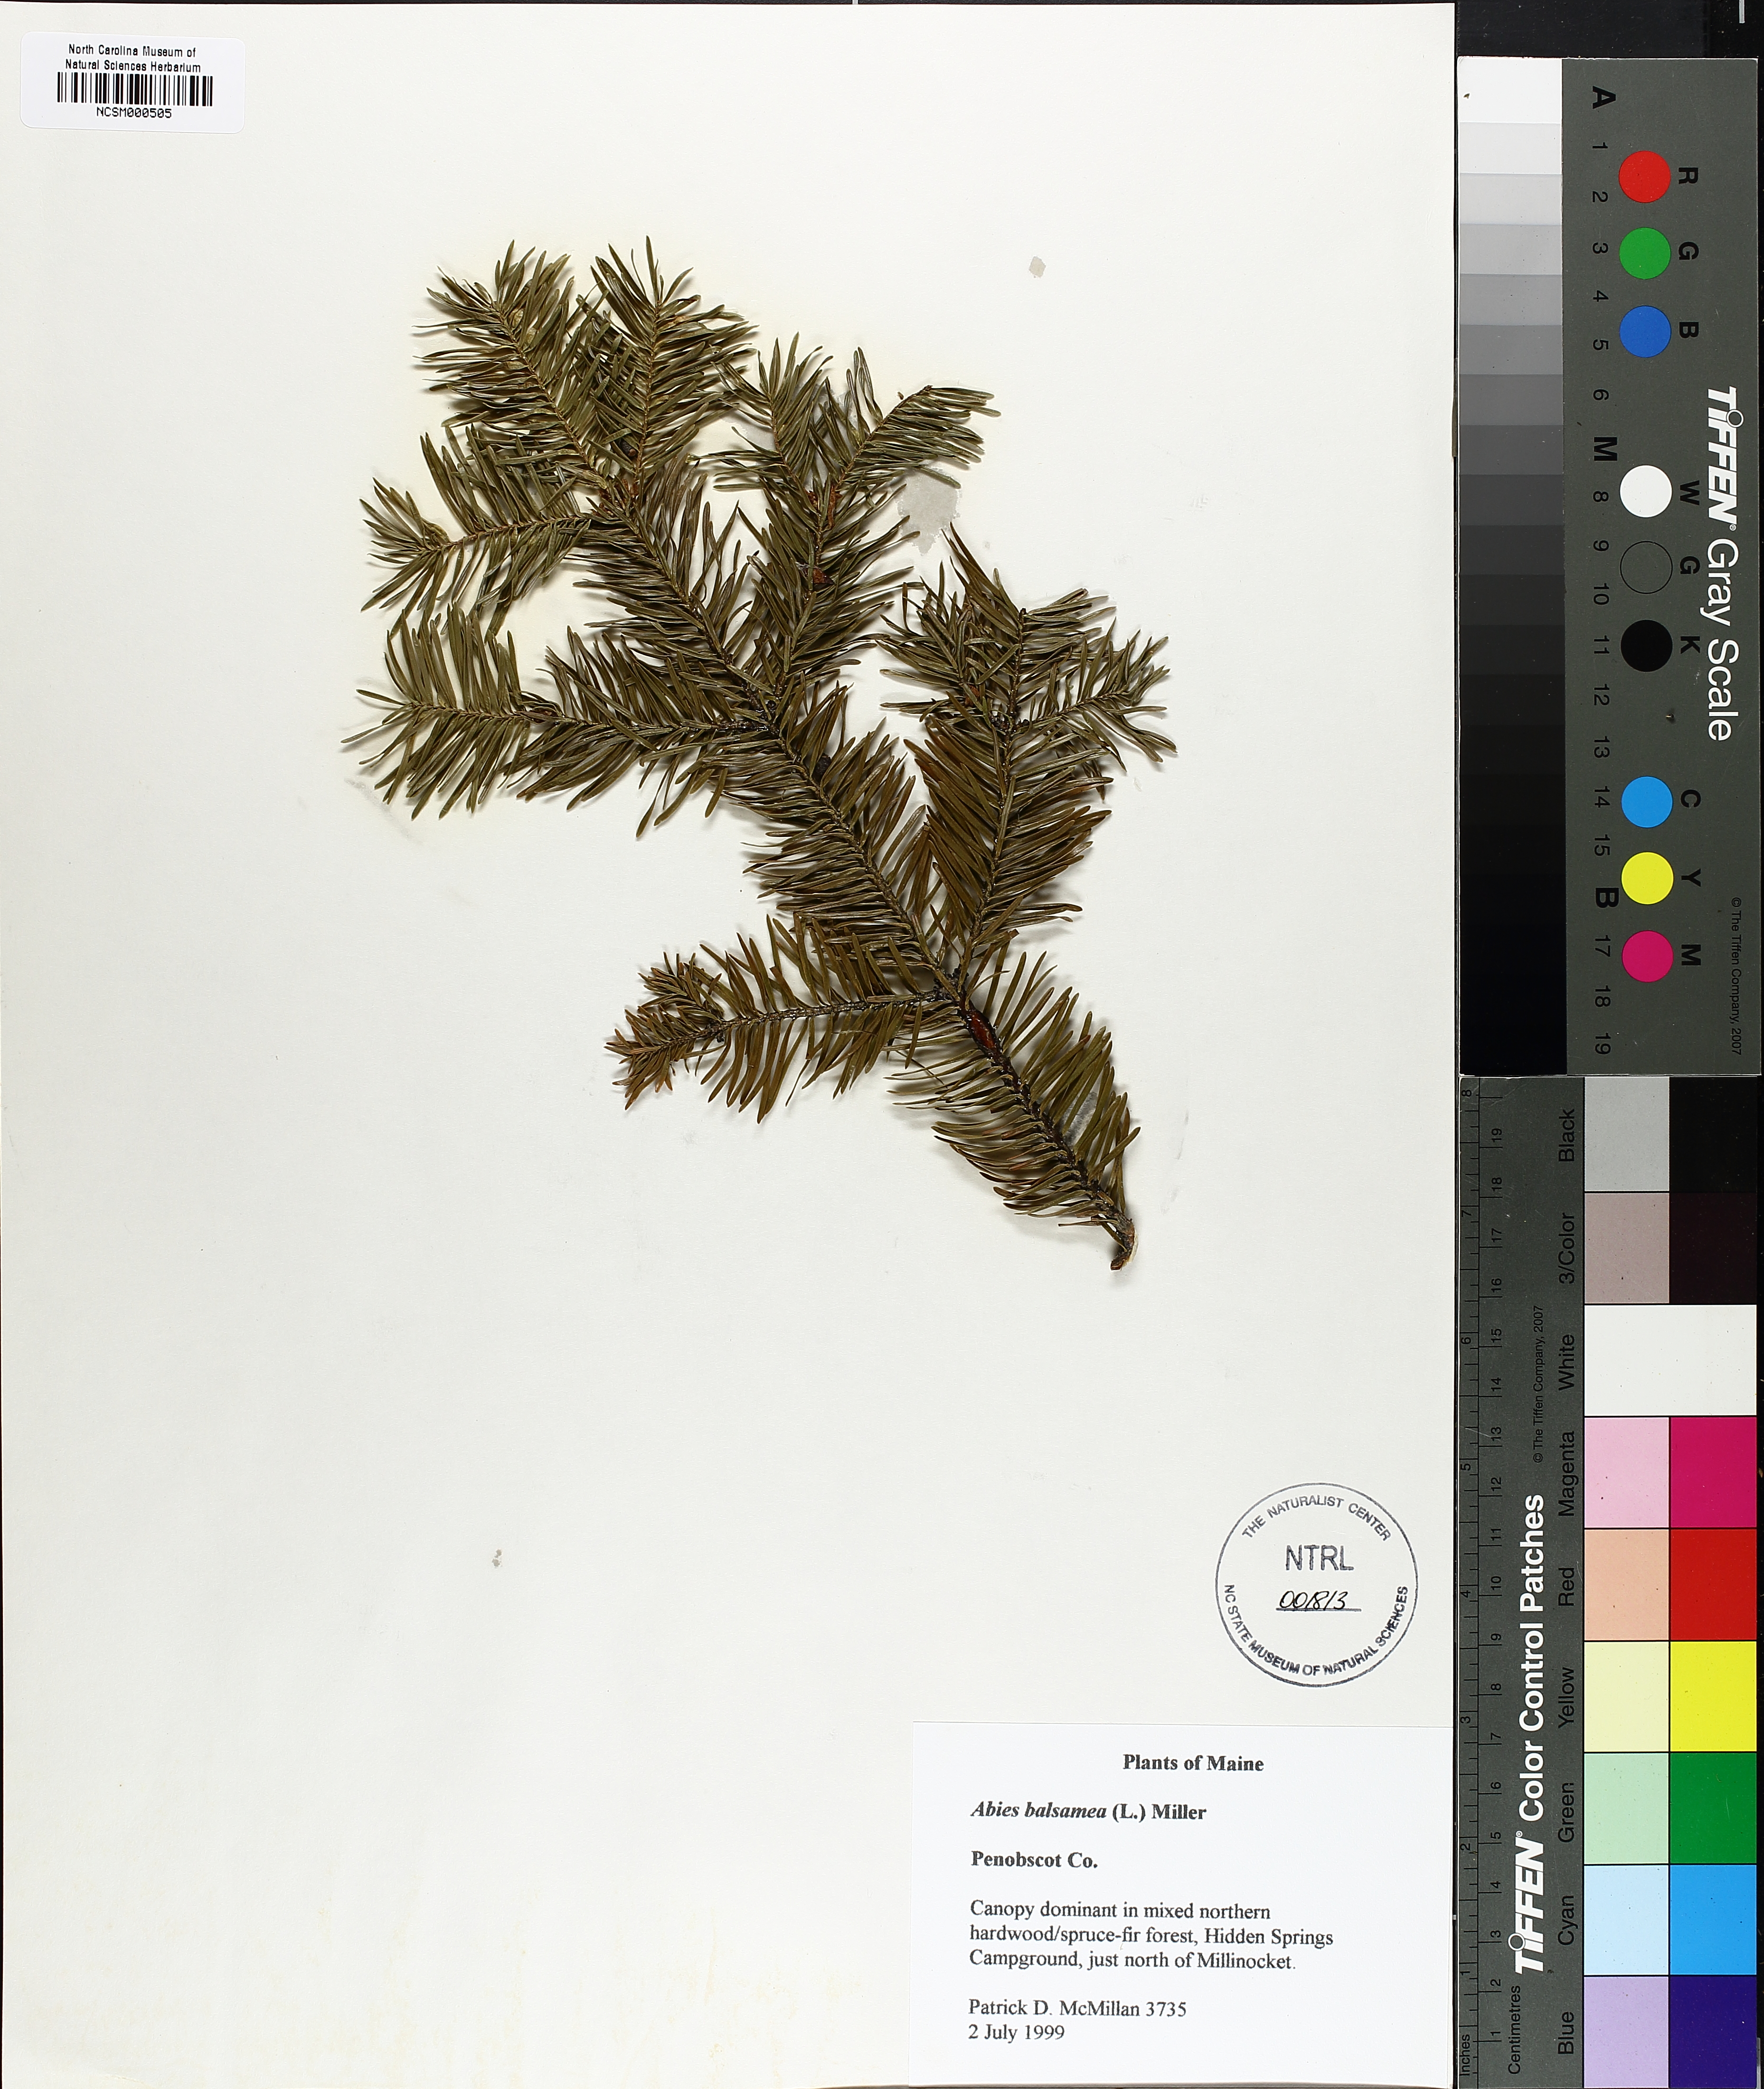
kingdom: Plantae
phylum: Tracheophyta
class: Pinopsida
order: Pinales
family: Pinaceae
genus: Abies
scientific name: Abies balsamea
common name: Balsam fir
